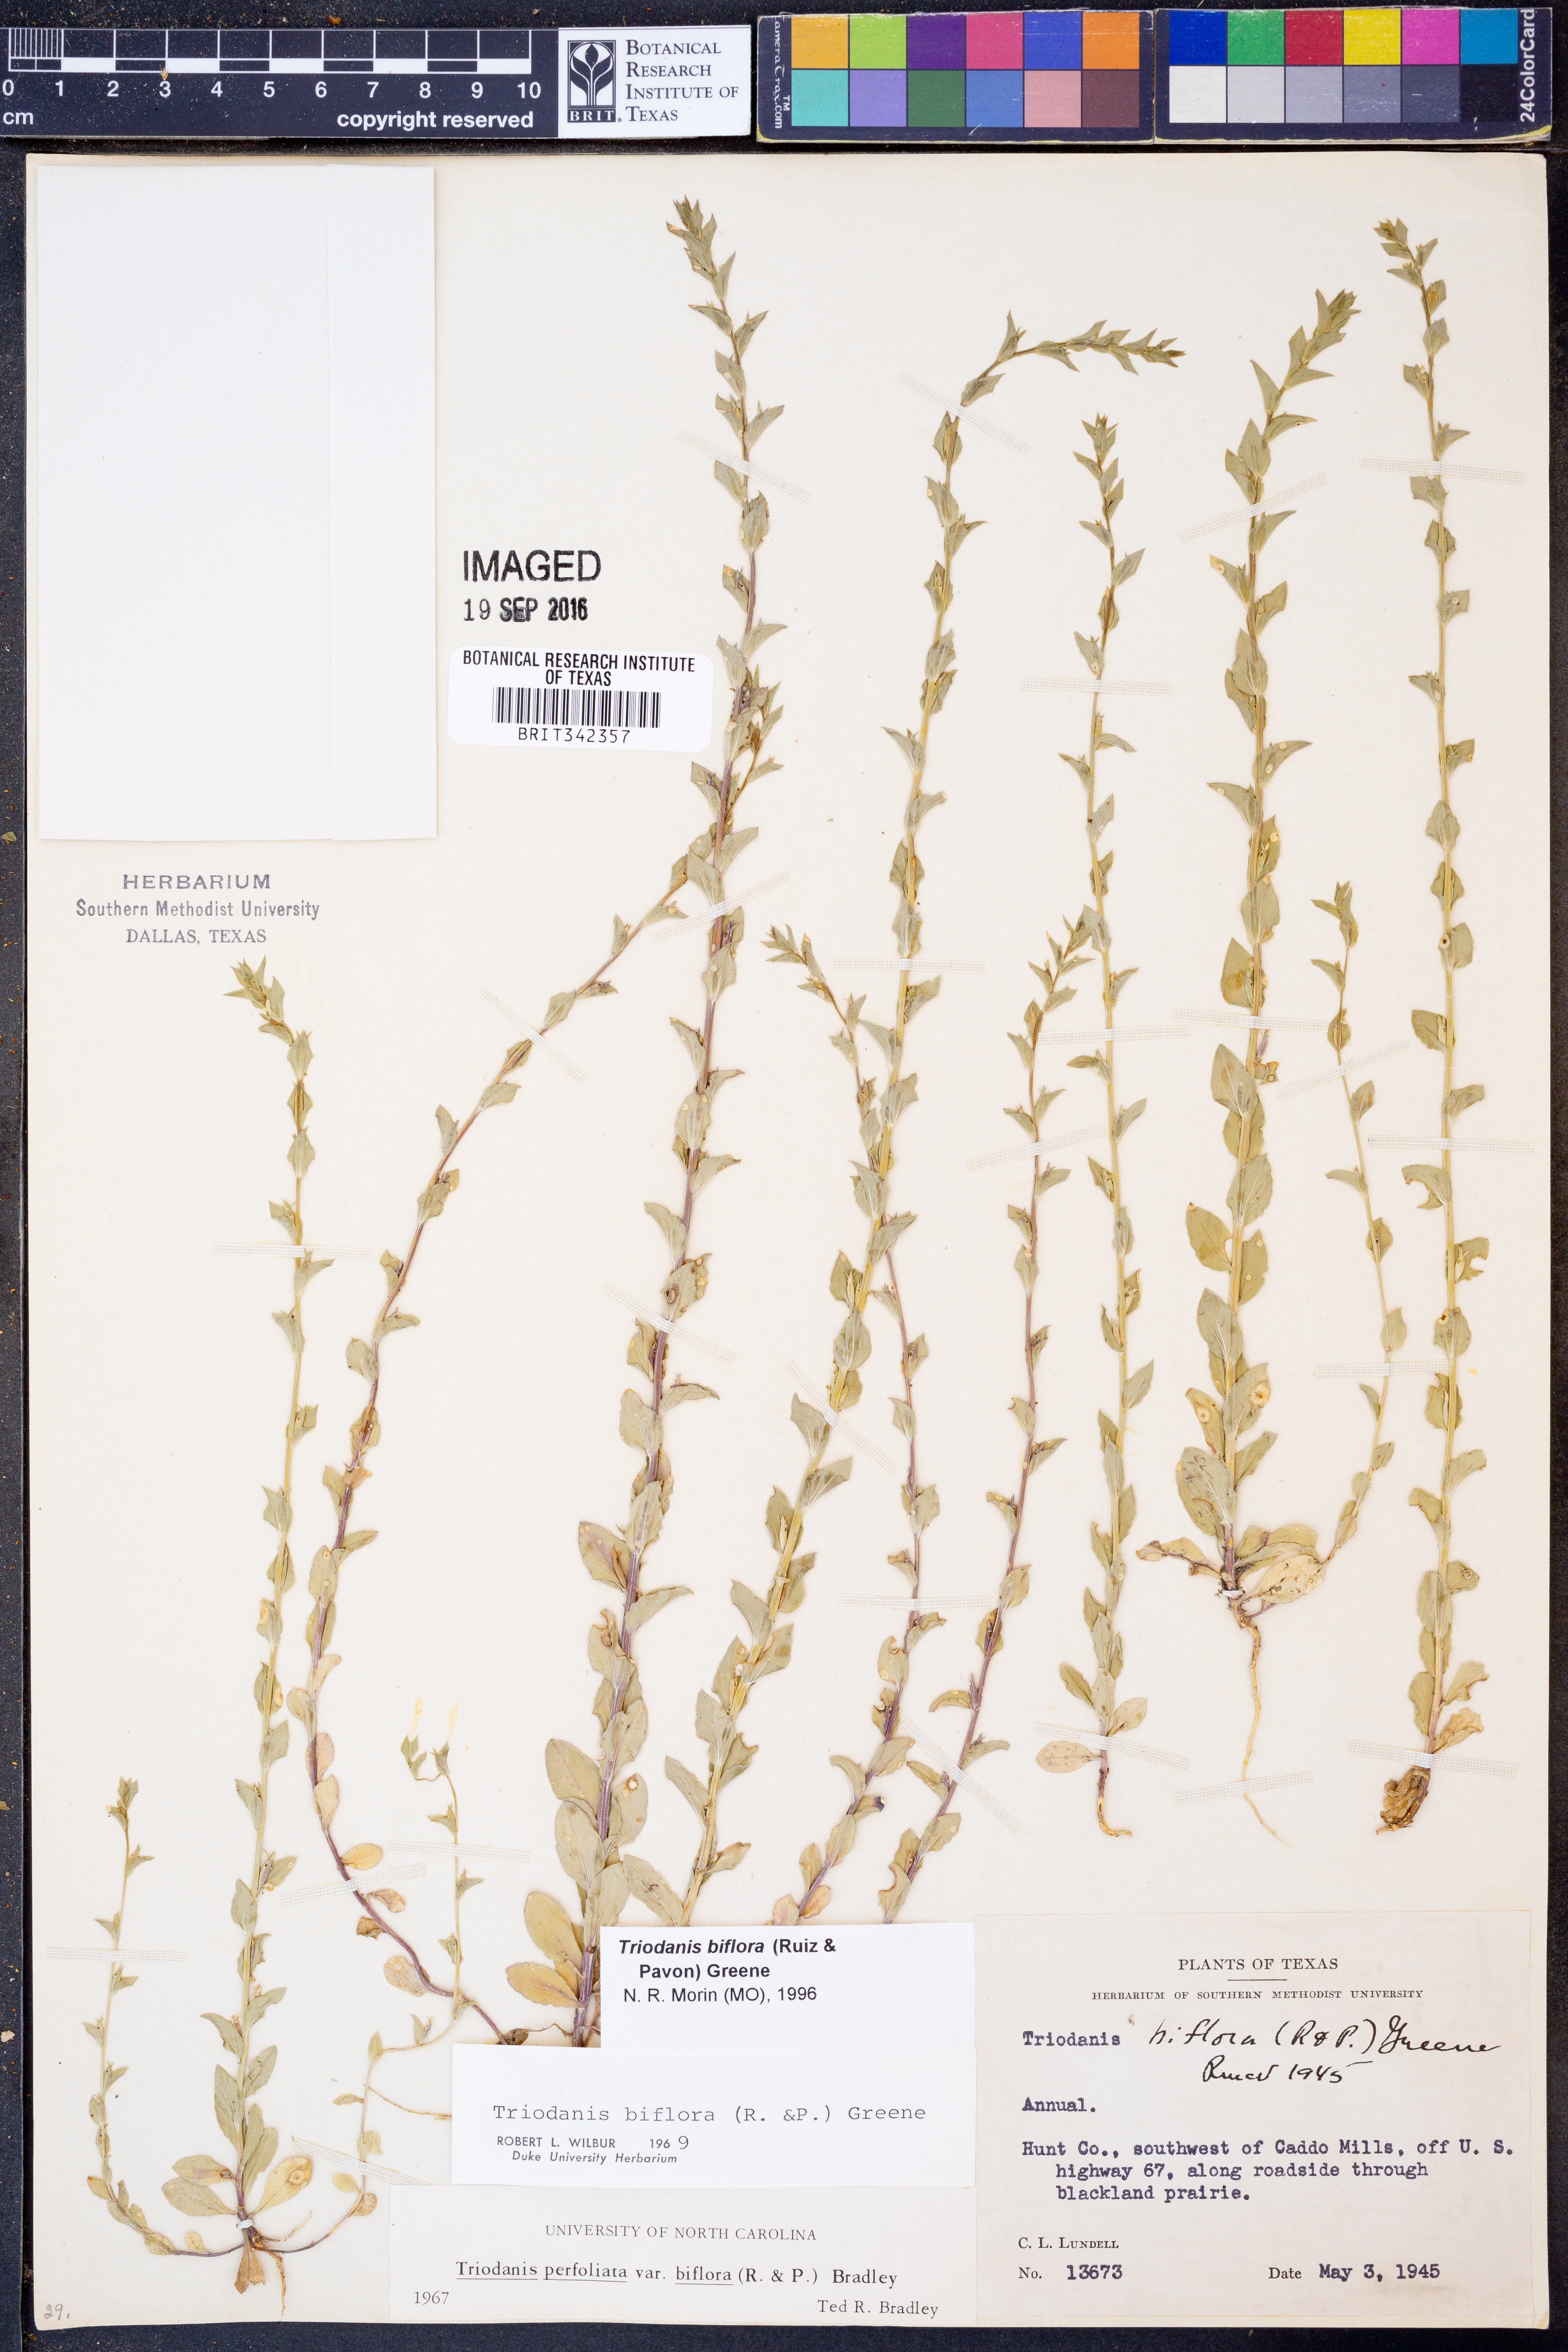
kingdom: Plantae
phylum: Tracheophyta
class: Magnoliopsida
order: Asterales
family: Campanulaceae
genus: Triodanis
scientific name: Triodanis perfoliata
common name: Clasping venus' looking-glass
